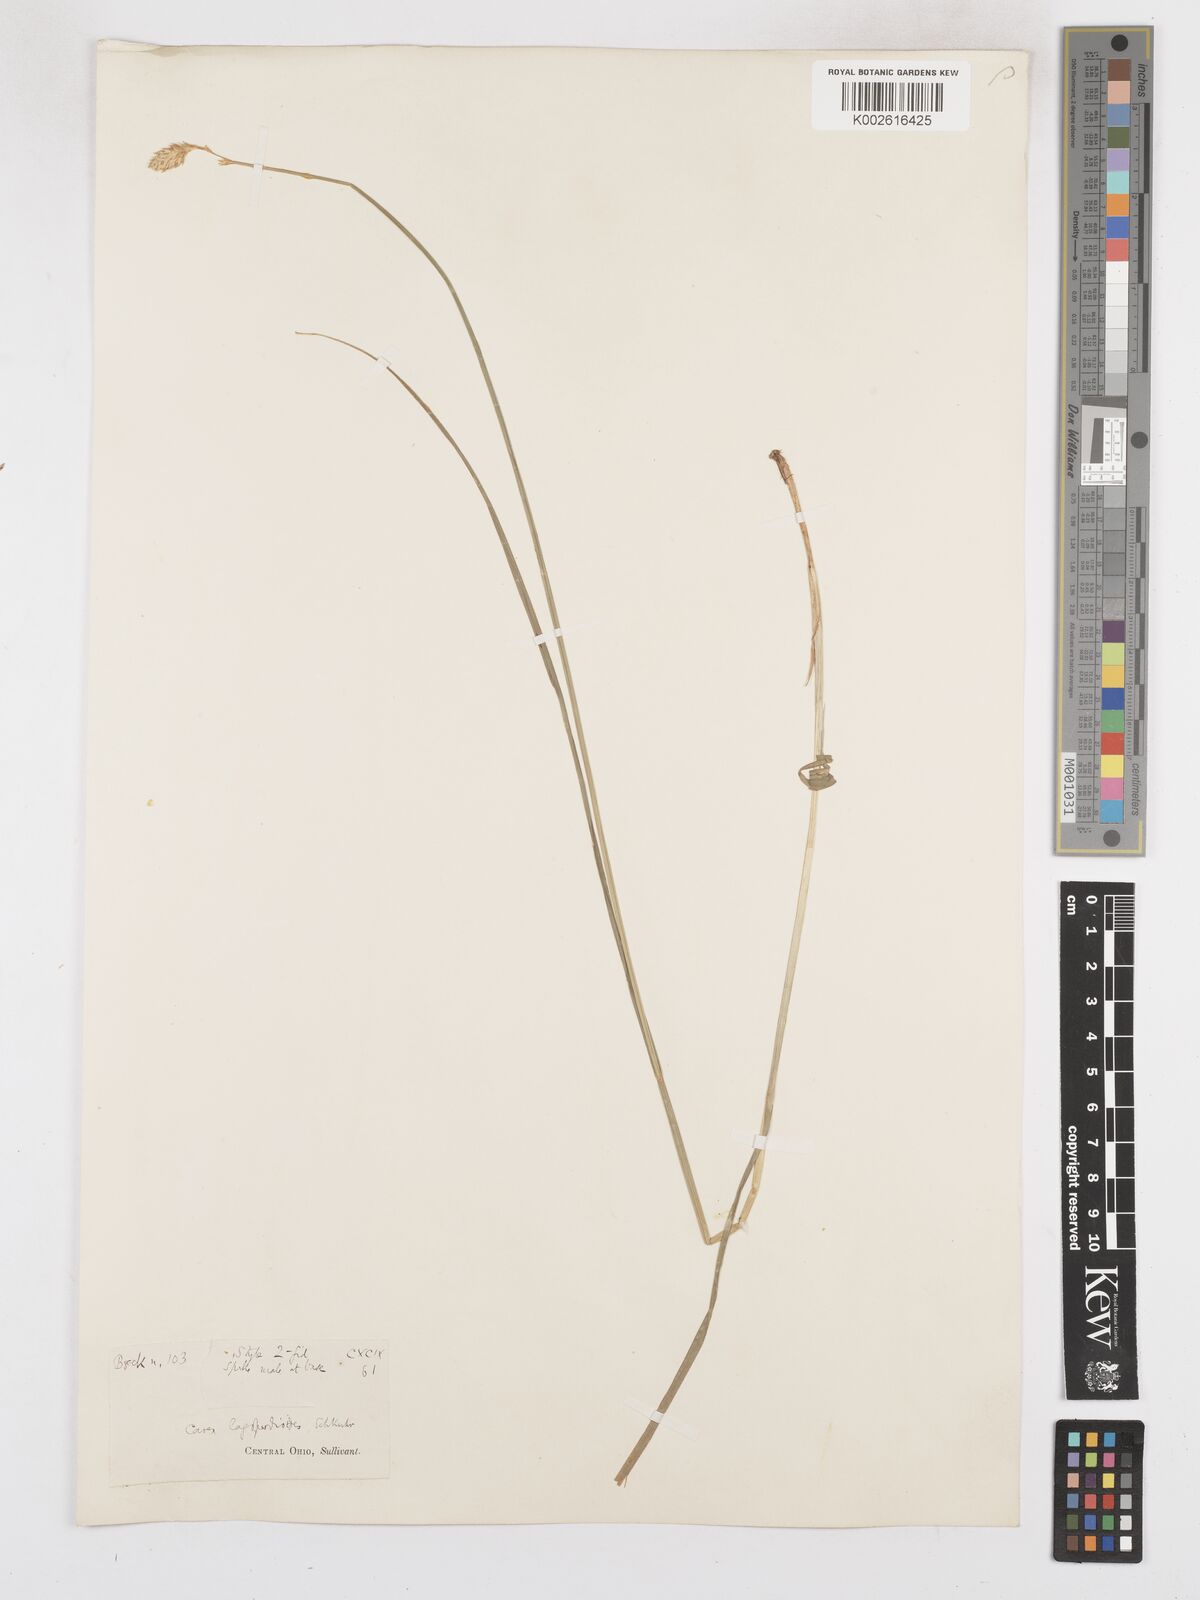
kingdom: Plantae
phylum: Tracheophyta
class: Liliopsida
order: Poales
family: Cyperaceae
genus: Carex
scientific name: Carex tribuloides
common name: Blunt broom sedge
